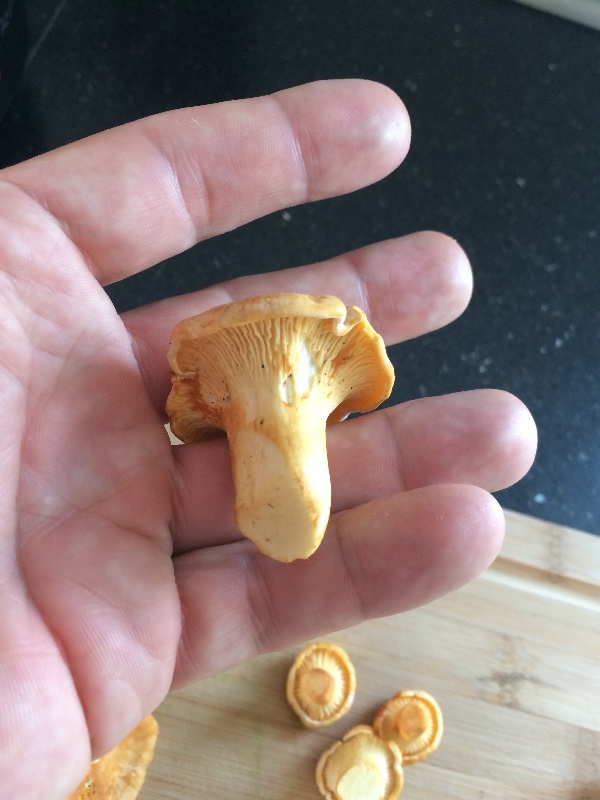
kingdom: Fungi
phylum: Basidiomycota
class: Agaricomycetes
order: Cantharellales
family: Hydnaceae
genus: Cantharellus
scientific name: Cantharellus pallens
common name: bleg kantarel
